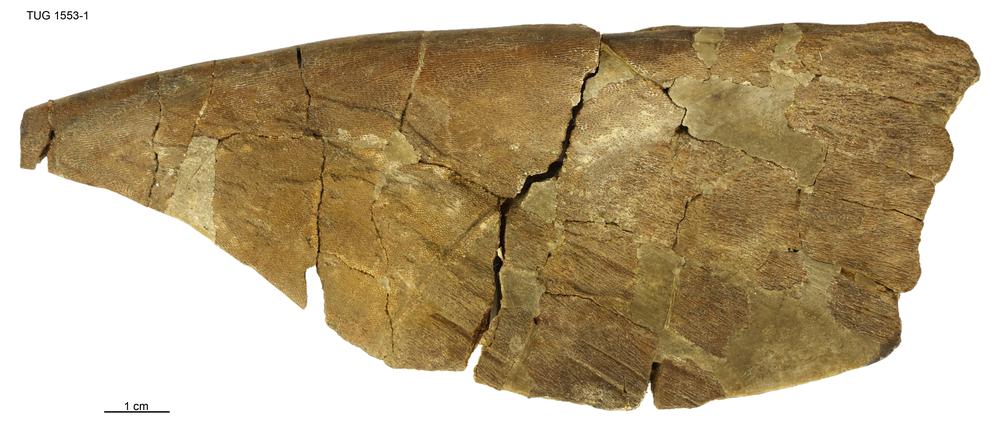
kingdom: Animalia
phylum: Chordata
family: Drepanaspididae
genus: Psammosteus
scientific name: Psammosteus
